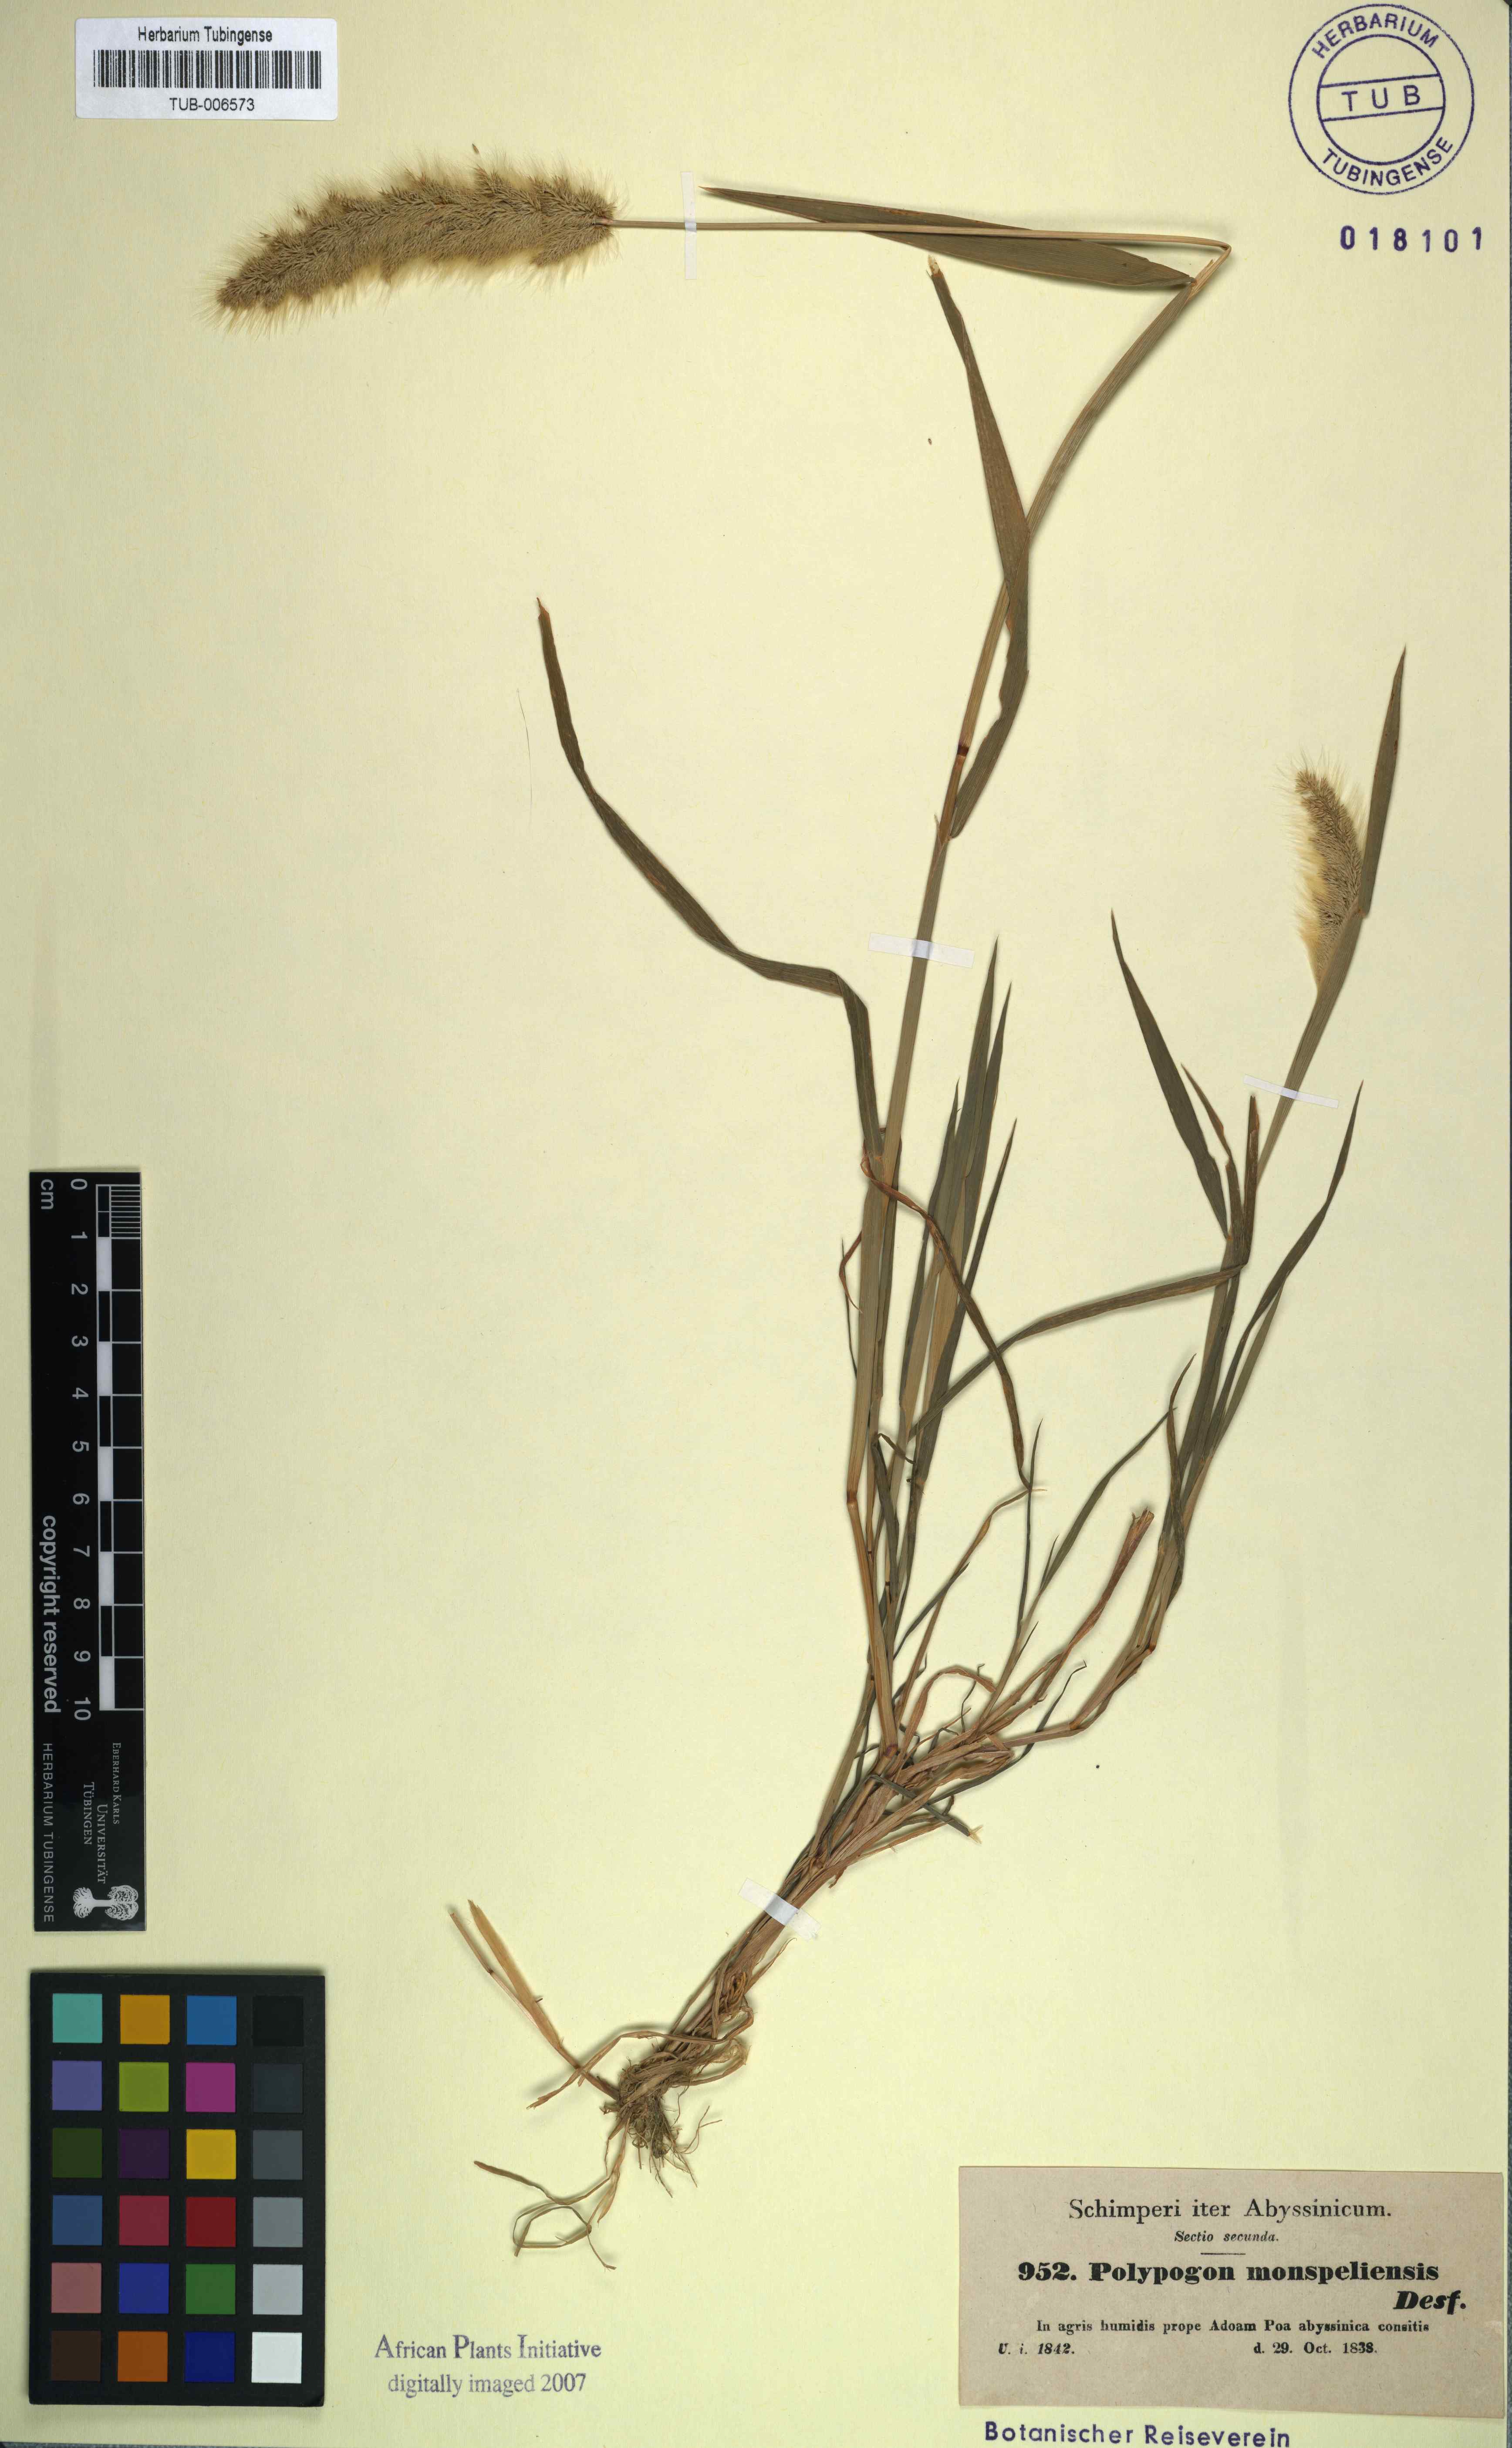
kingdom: Plantae
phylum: Tracheophyta
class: Liliopsida
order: Poales
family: Poaceae
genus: Polypogon
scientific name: Polypogon monspeliensis
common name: Annual rabbitsfoot grass
